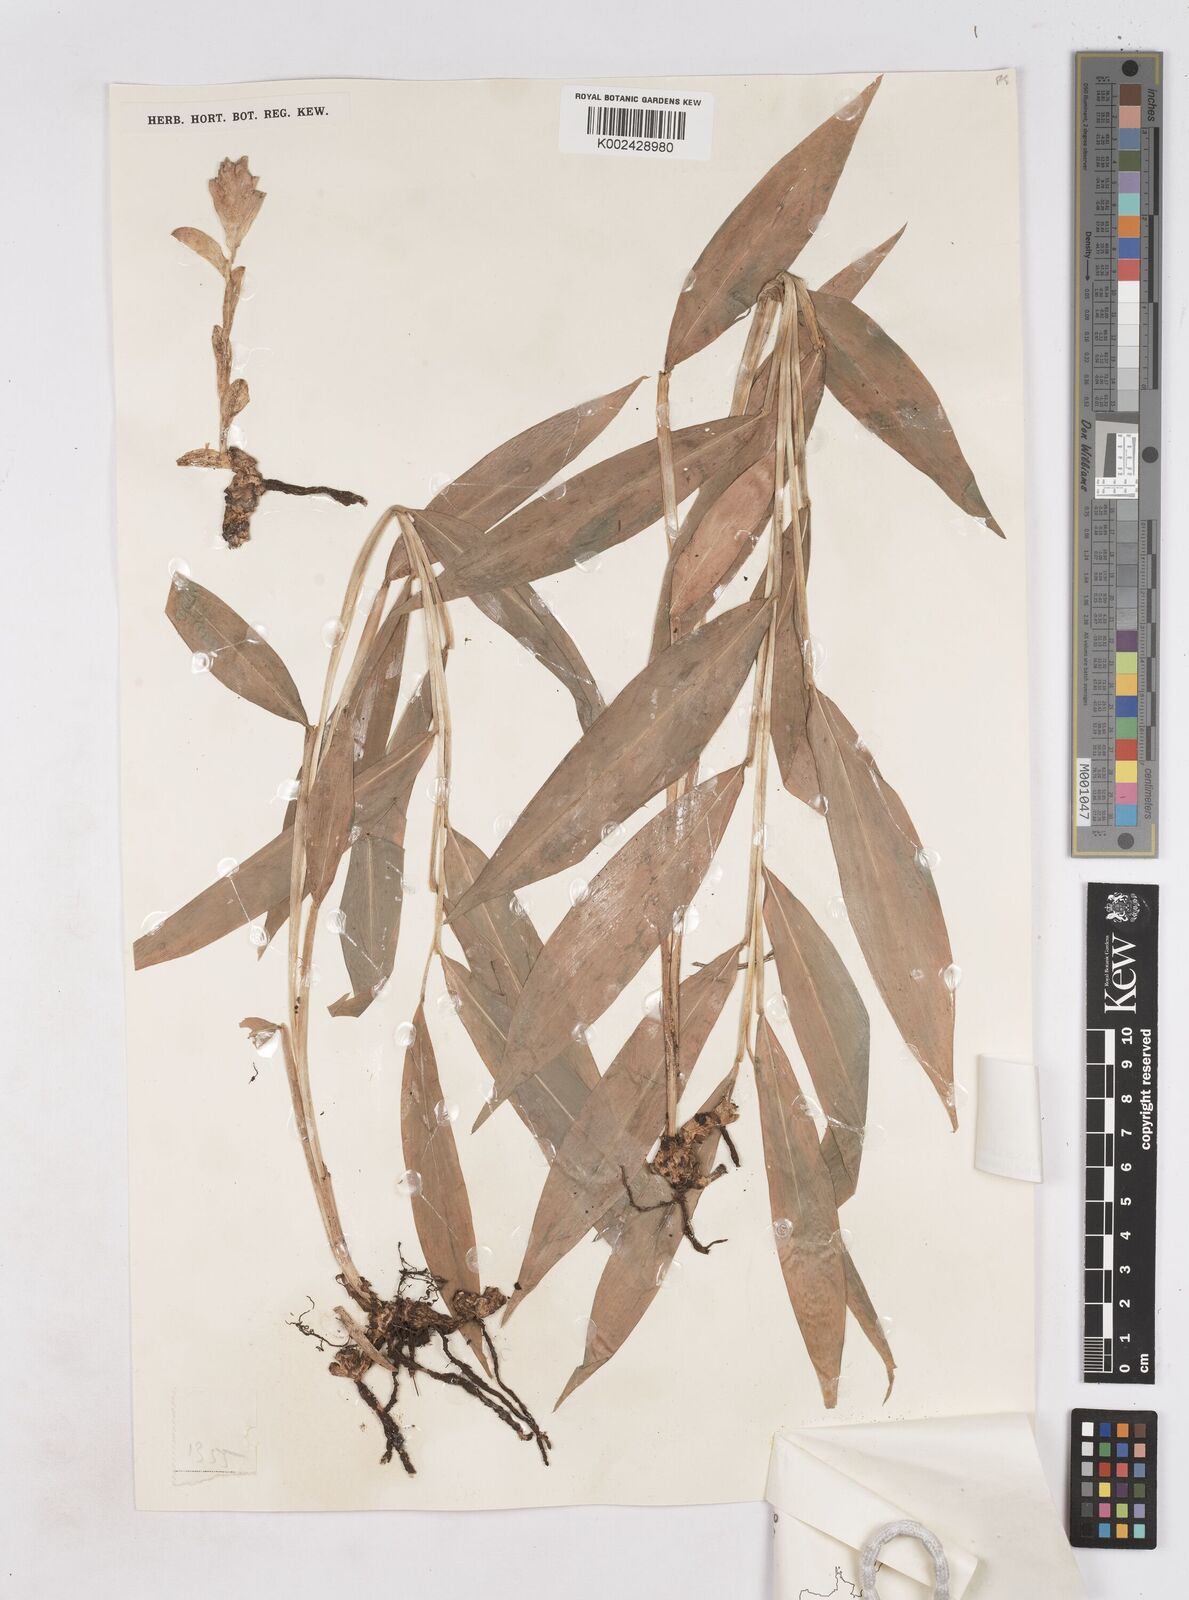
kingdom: Plantae
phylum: Tracheophyta
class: Liliopsida
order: Zingiberales
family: Zingiberaceae
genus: Zingiber
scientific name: Zingiber
